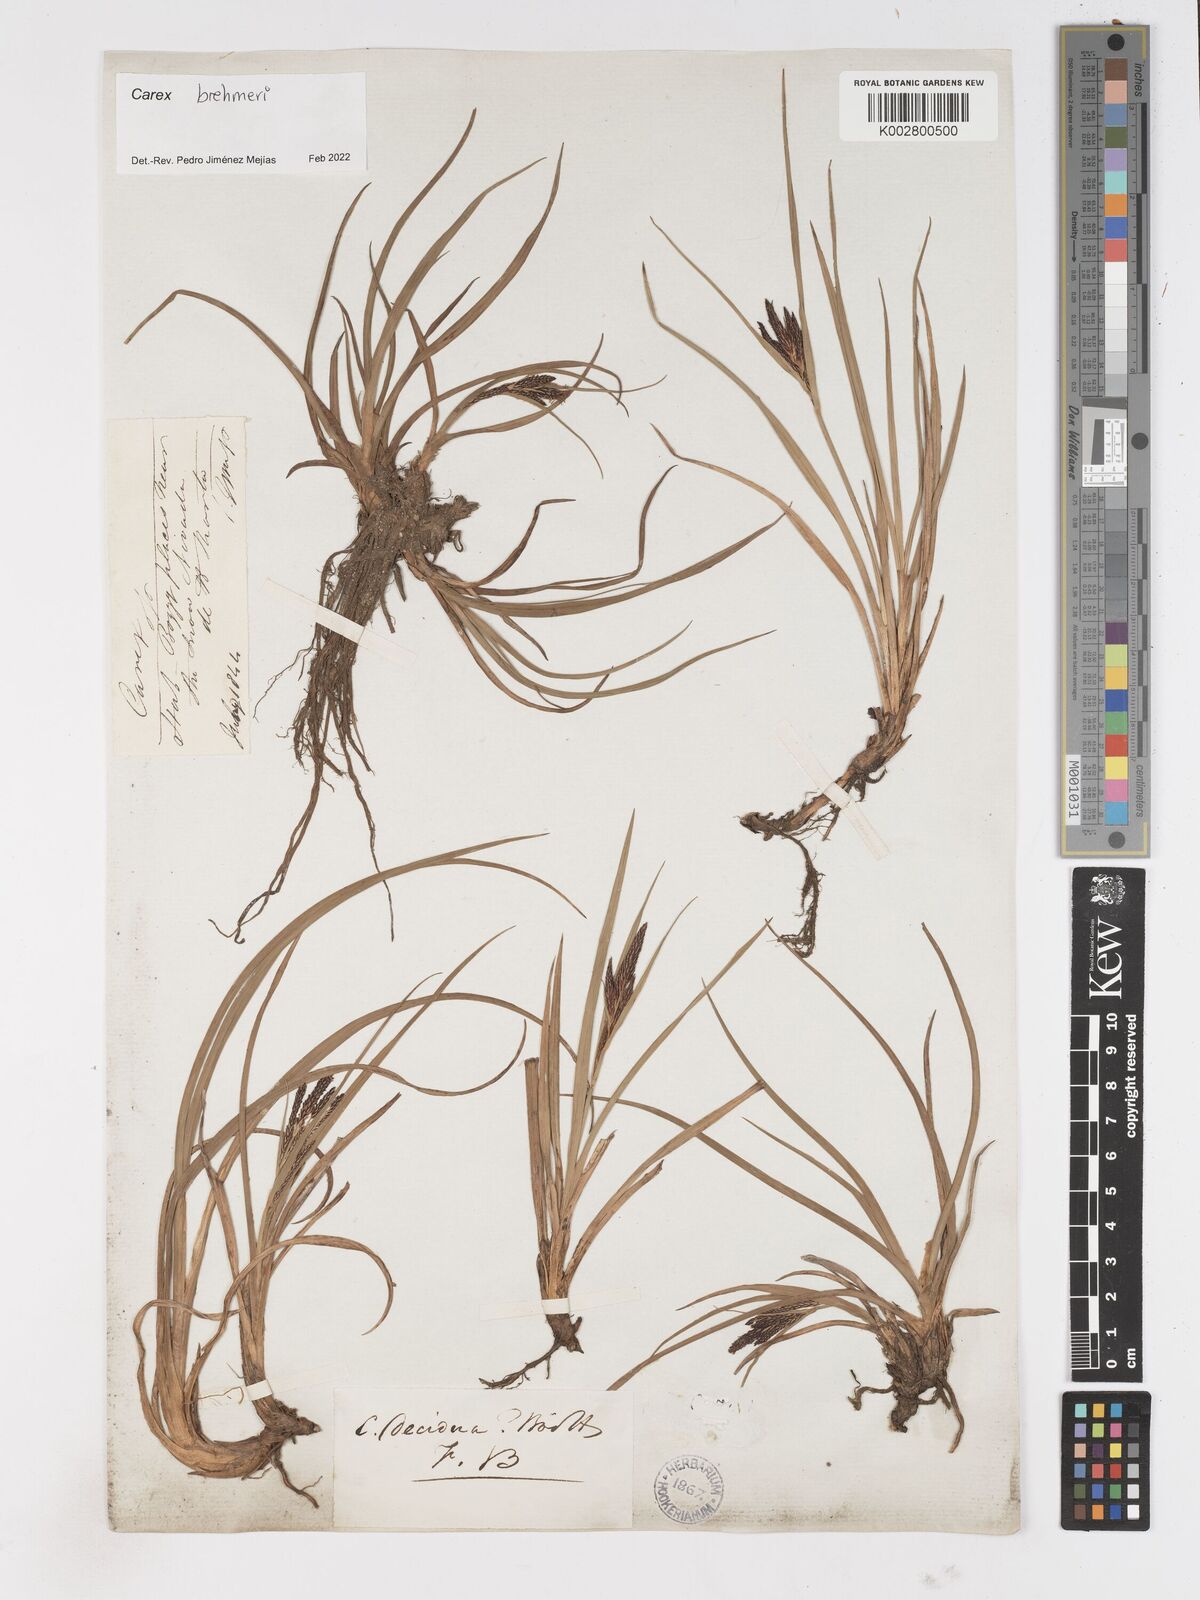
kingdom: Plantae
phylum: Tracheophyta
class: Liliopsida
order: Poales
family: Cyperaceae
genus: Carex
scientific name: Carex enneastachya
